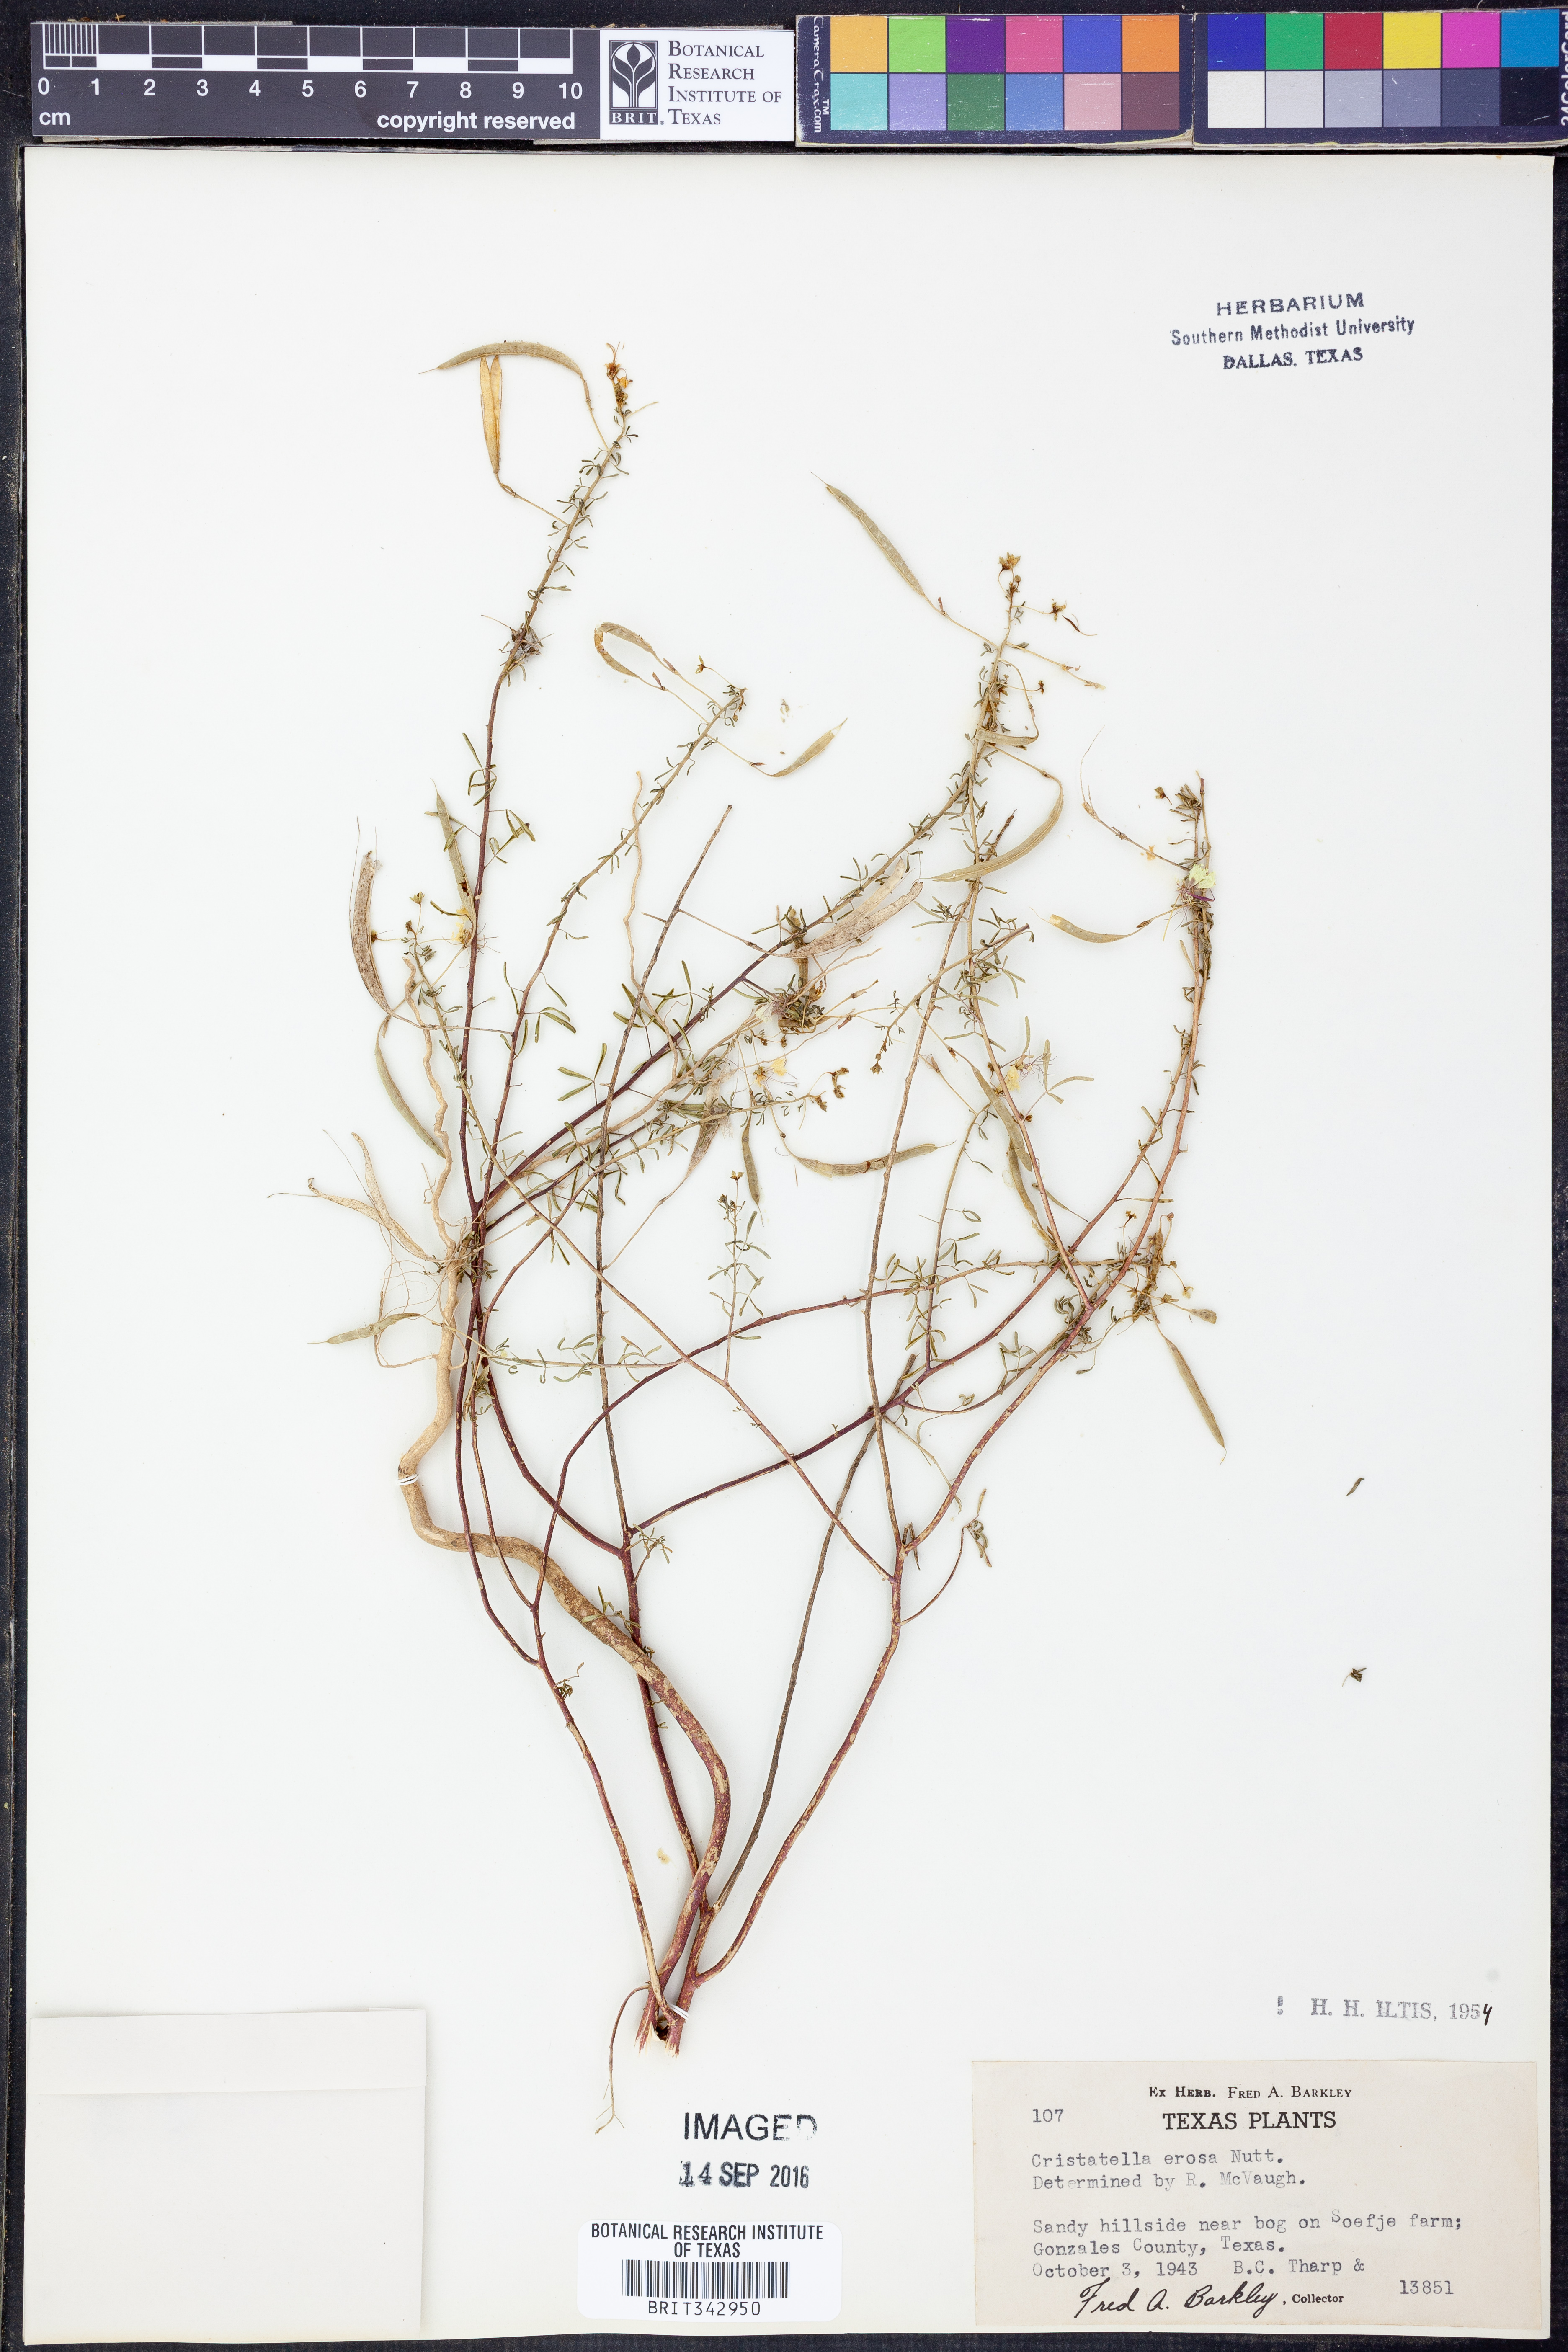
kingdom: Plantae
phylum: Tracheophyta
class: Magnoliopsida
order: Brassicales
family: Cleomaceae
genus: Polanisia
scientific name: Polanisia erosa
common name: Large clammyweed
